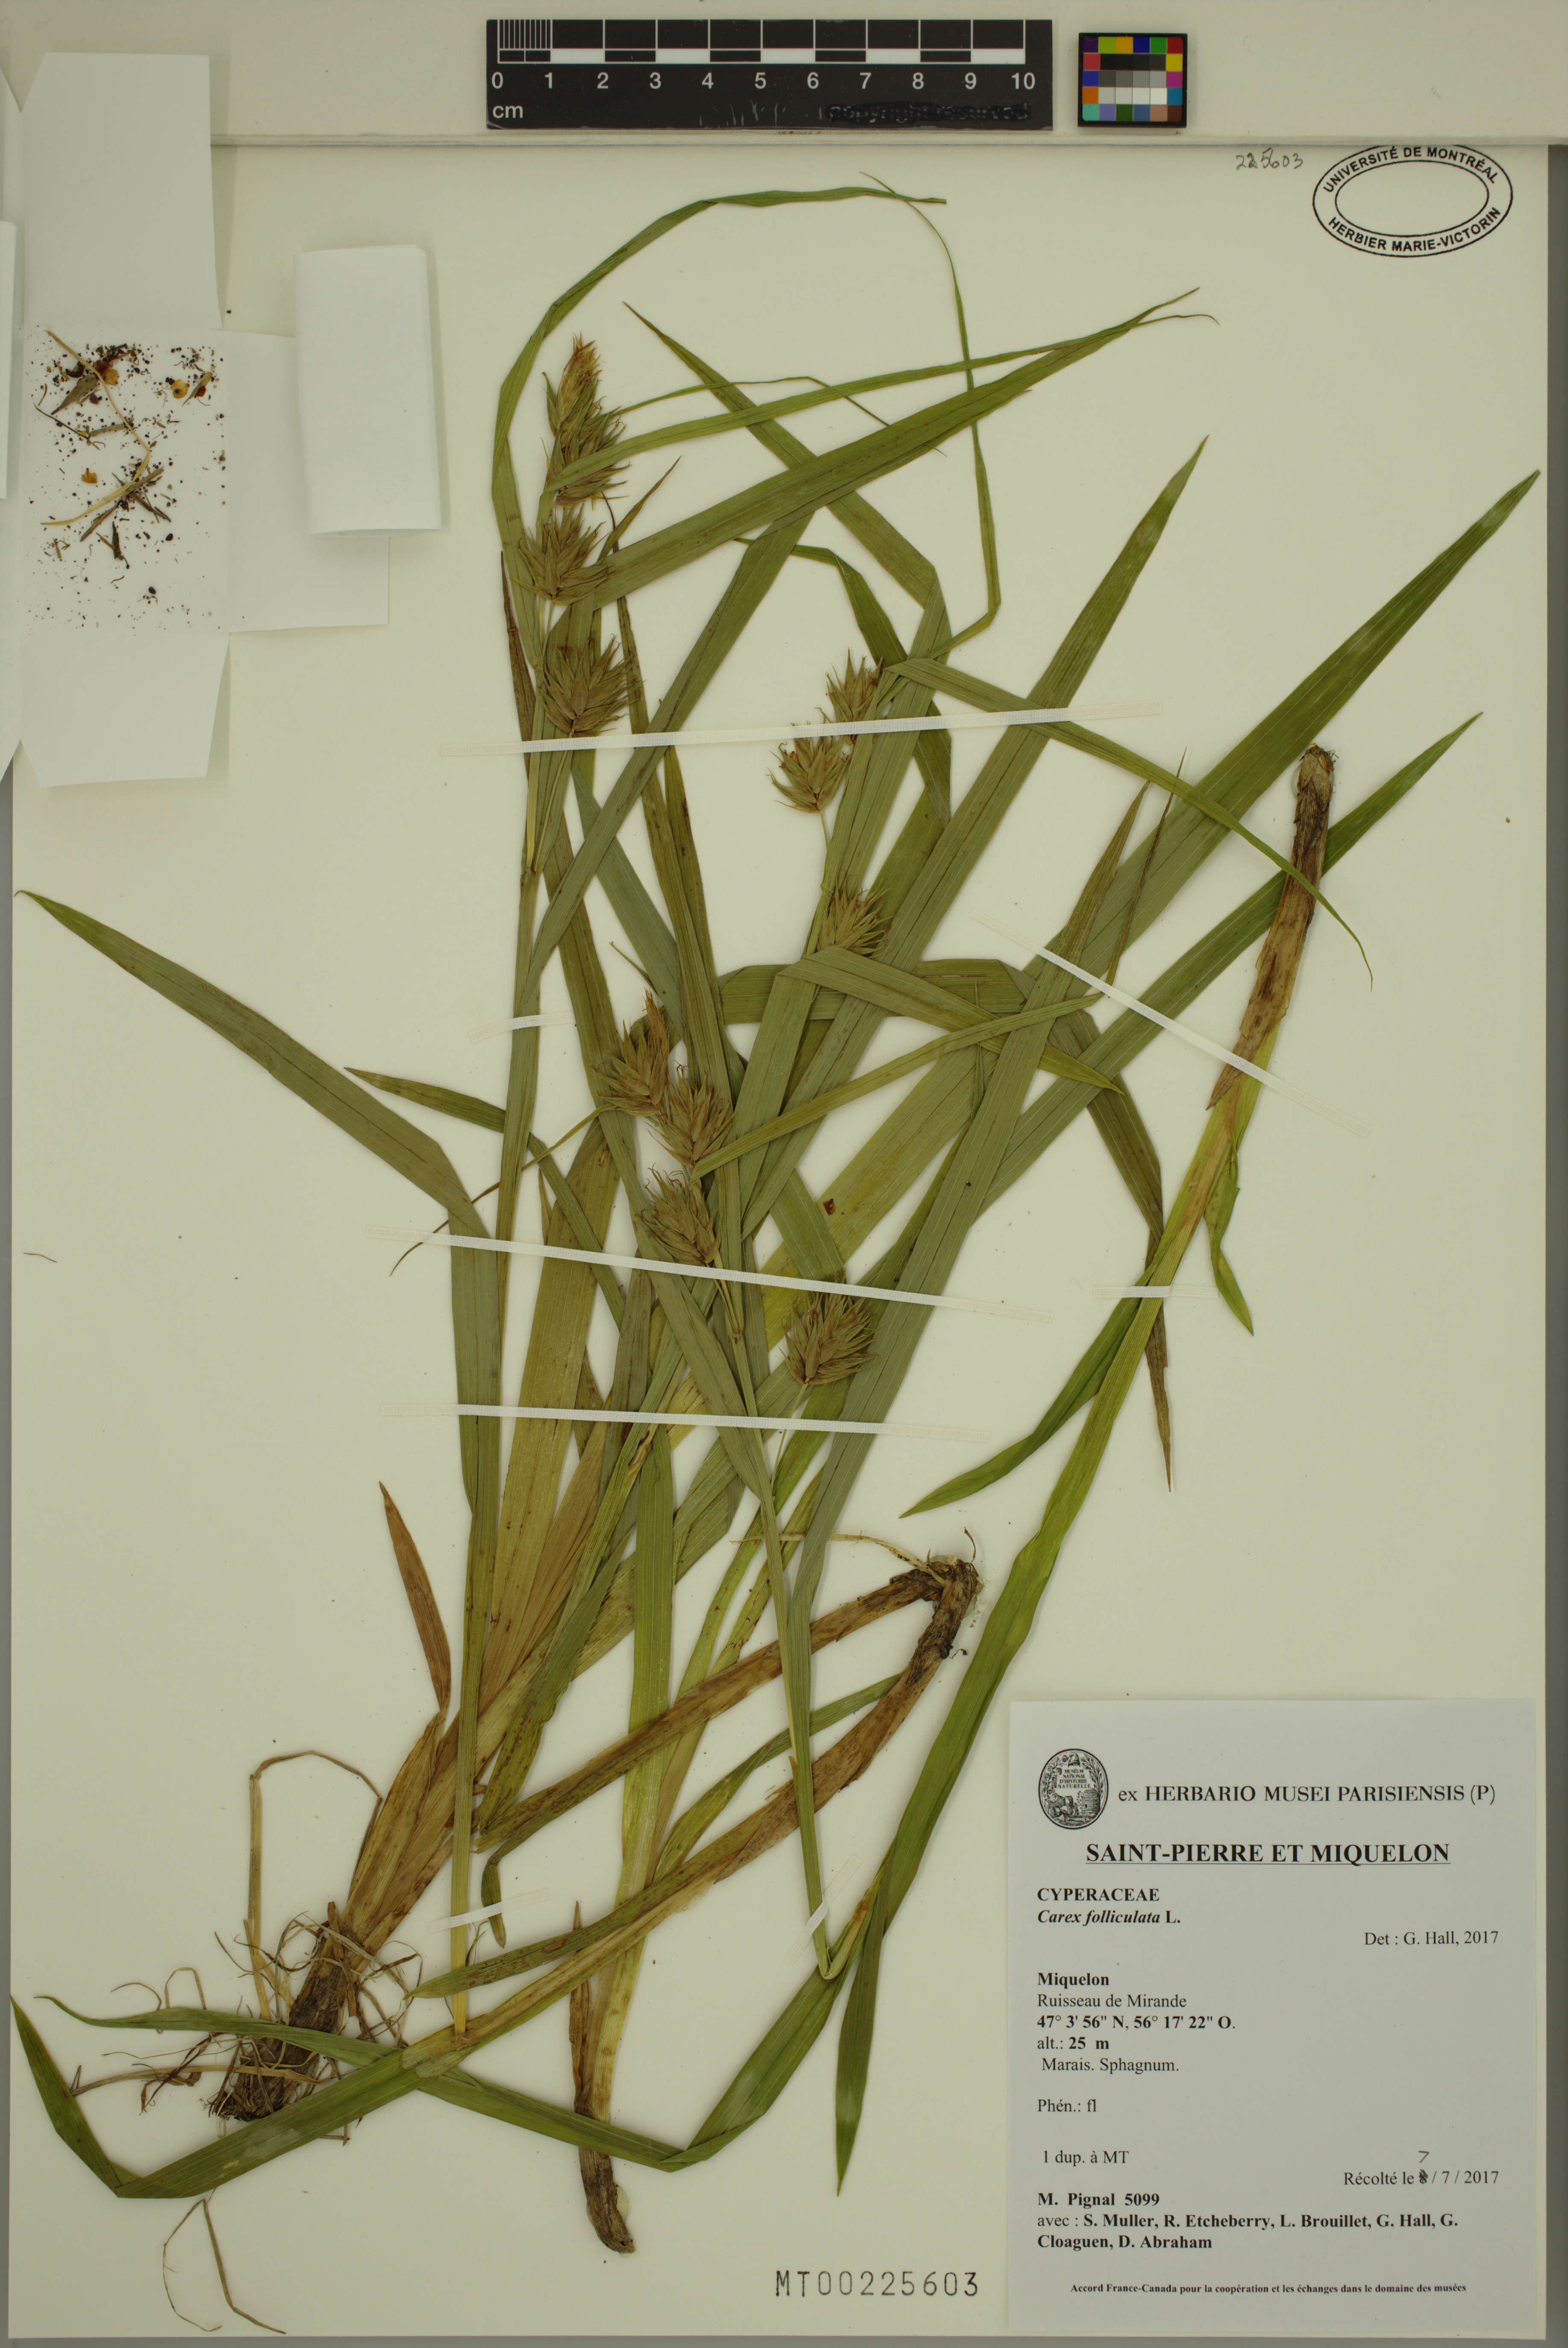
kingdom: Plantae
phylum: Tracheophyta
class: Liliopsida
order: Poales
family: Cyperaceae
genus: Carex
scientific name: Carex folliculata
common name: Northern long sedge
